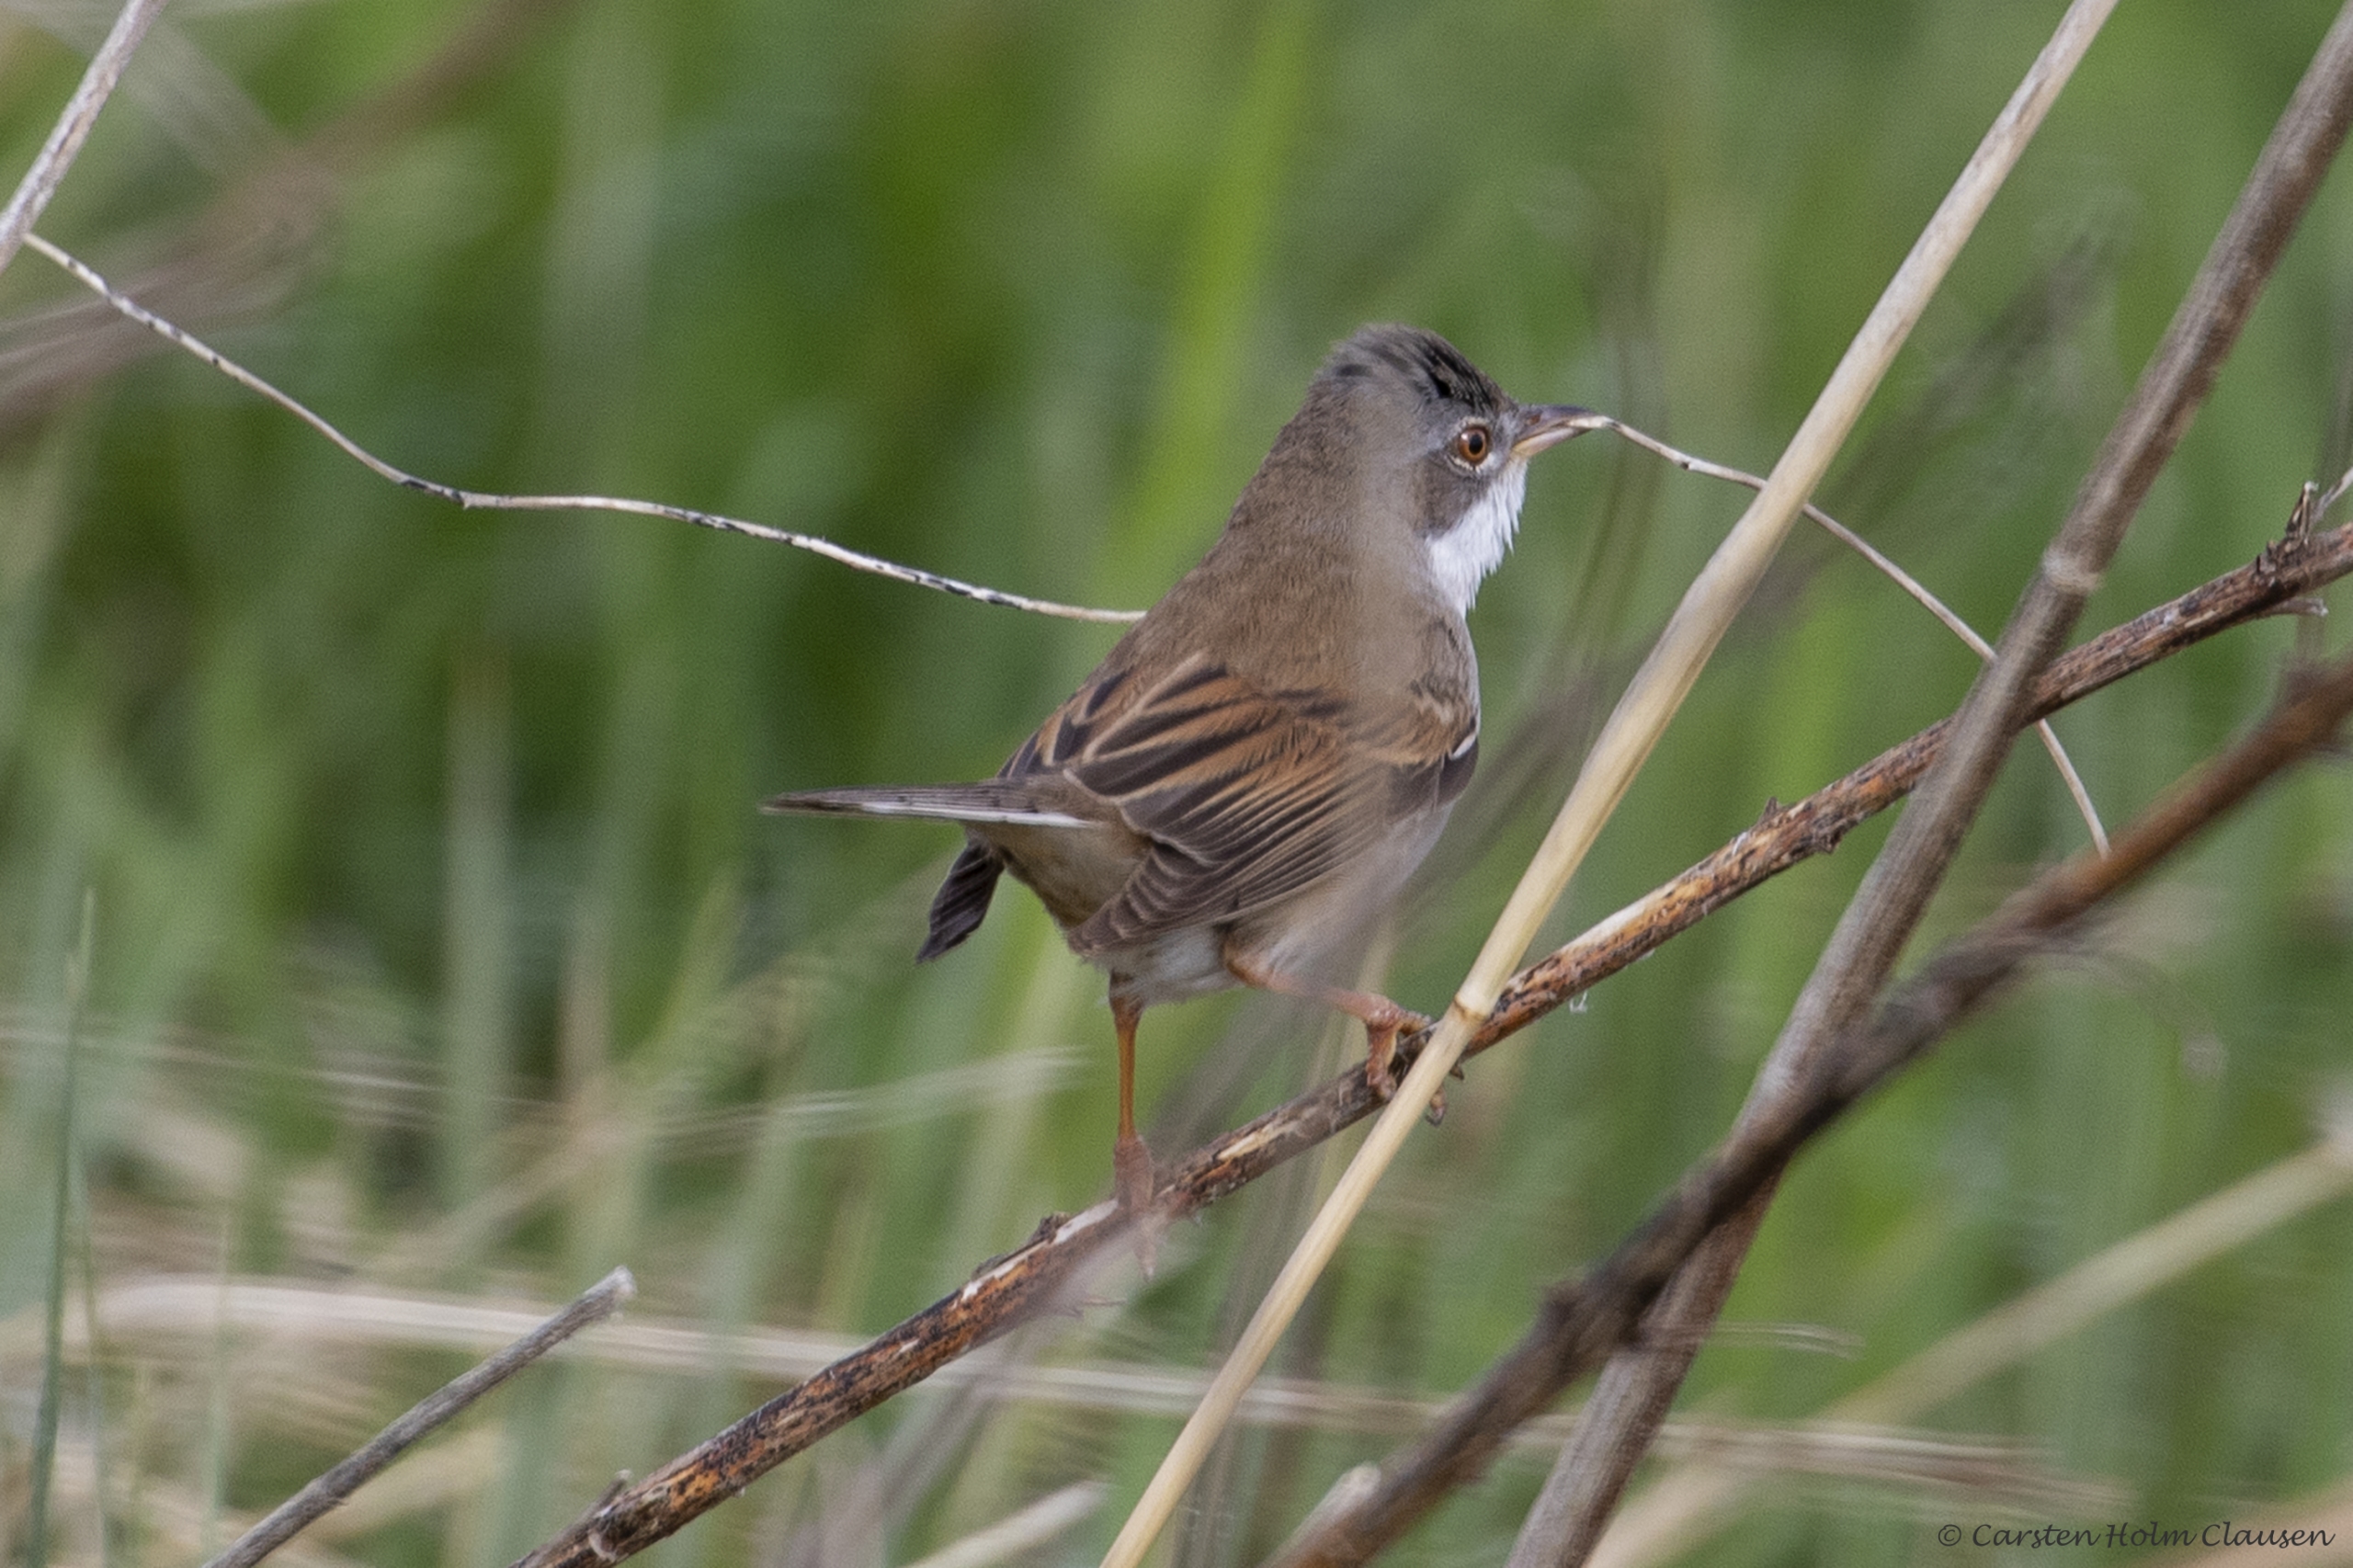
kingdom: Animalia
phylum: Chordata
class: Aves
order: Passeriformes
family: Sylviidae
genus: Sylvia
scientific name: Sylvia communis
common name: Tornsanger
